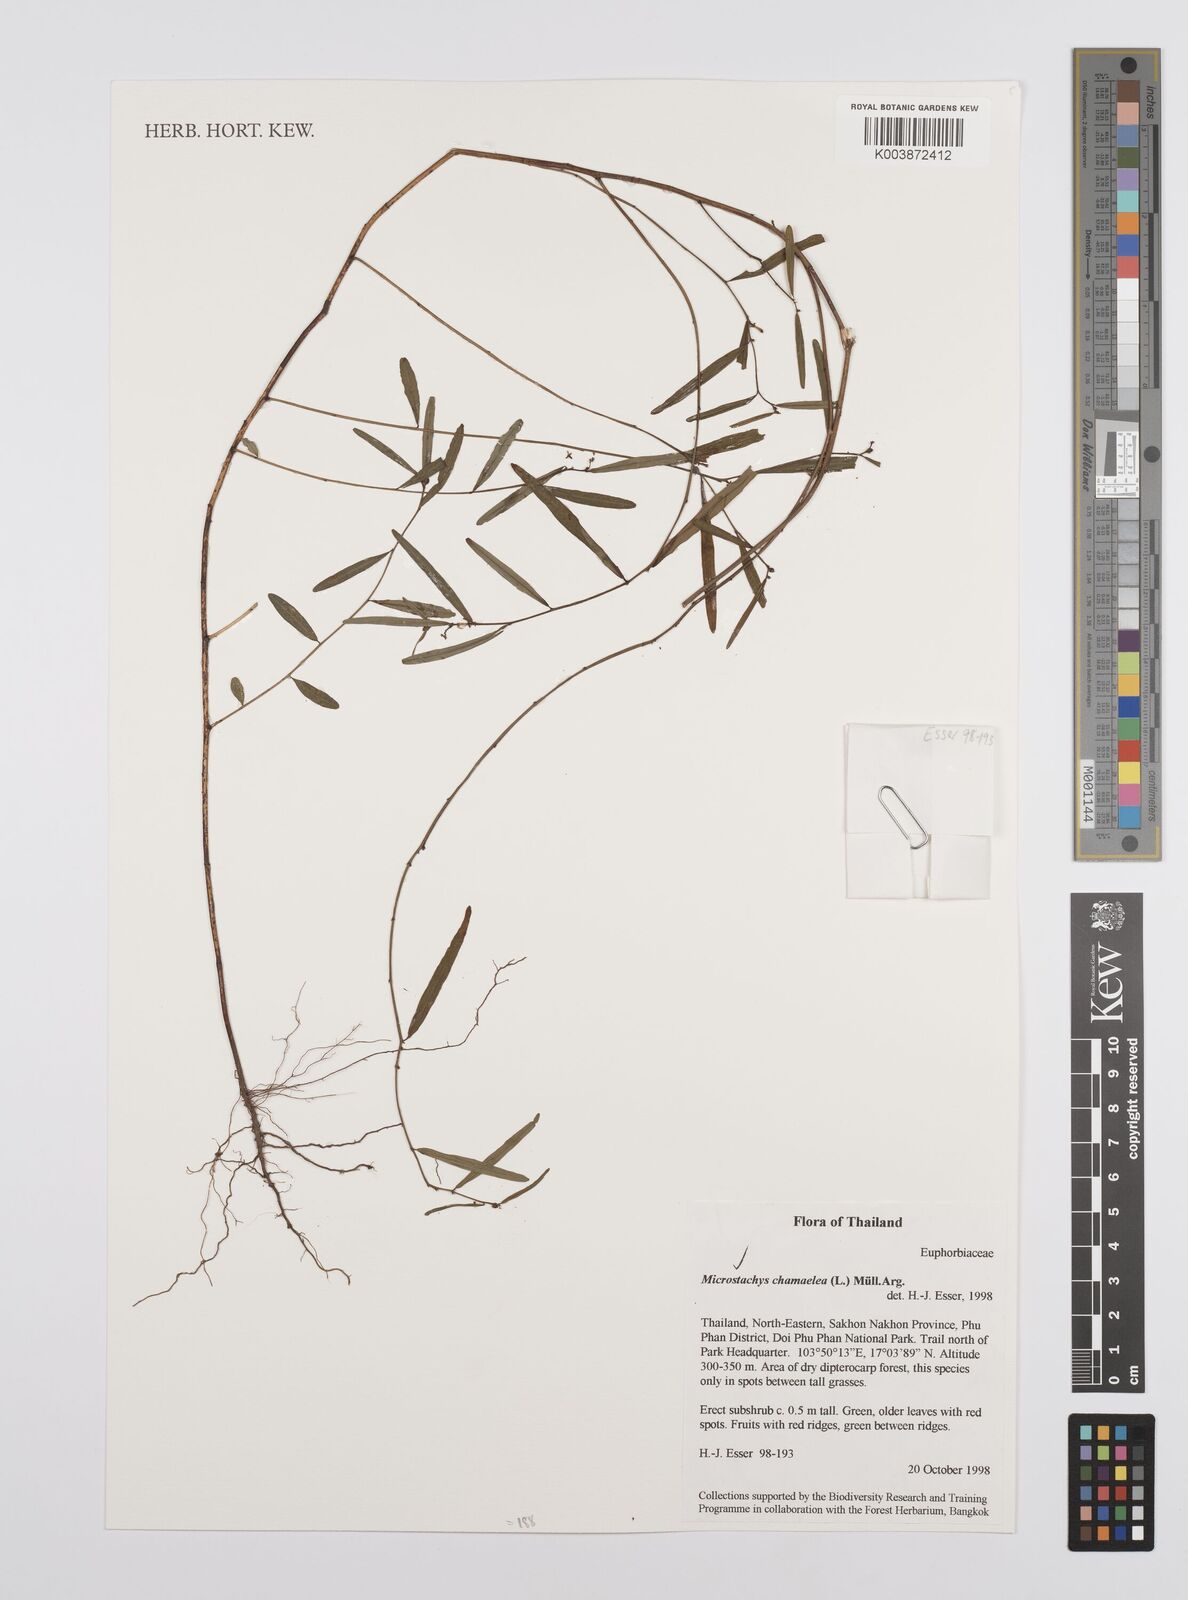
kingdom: Plantae
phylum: Tracheophyta
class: Magnoliopsida
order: Malpighiales
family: Euphorbiaceae
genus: Microstachys
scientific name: Microstachys chamaelea
